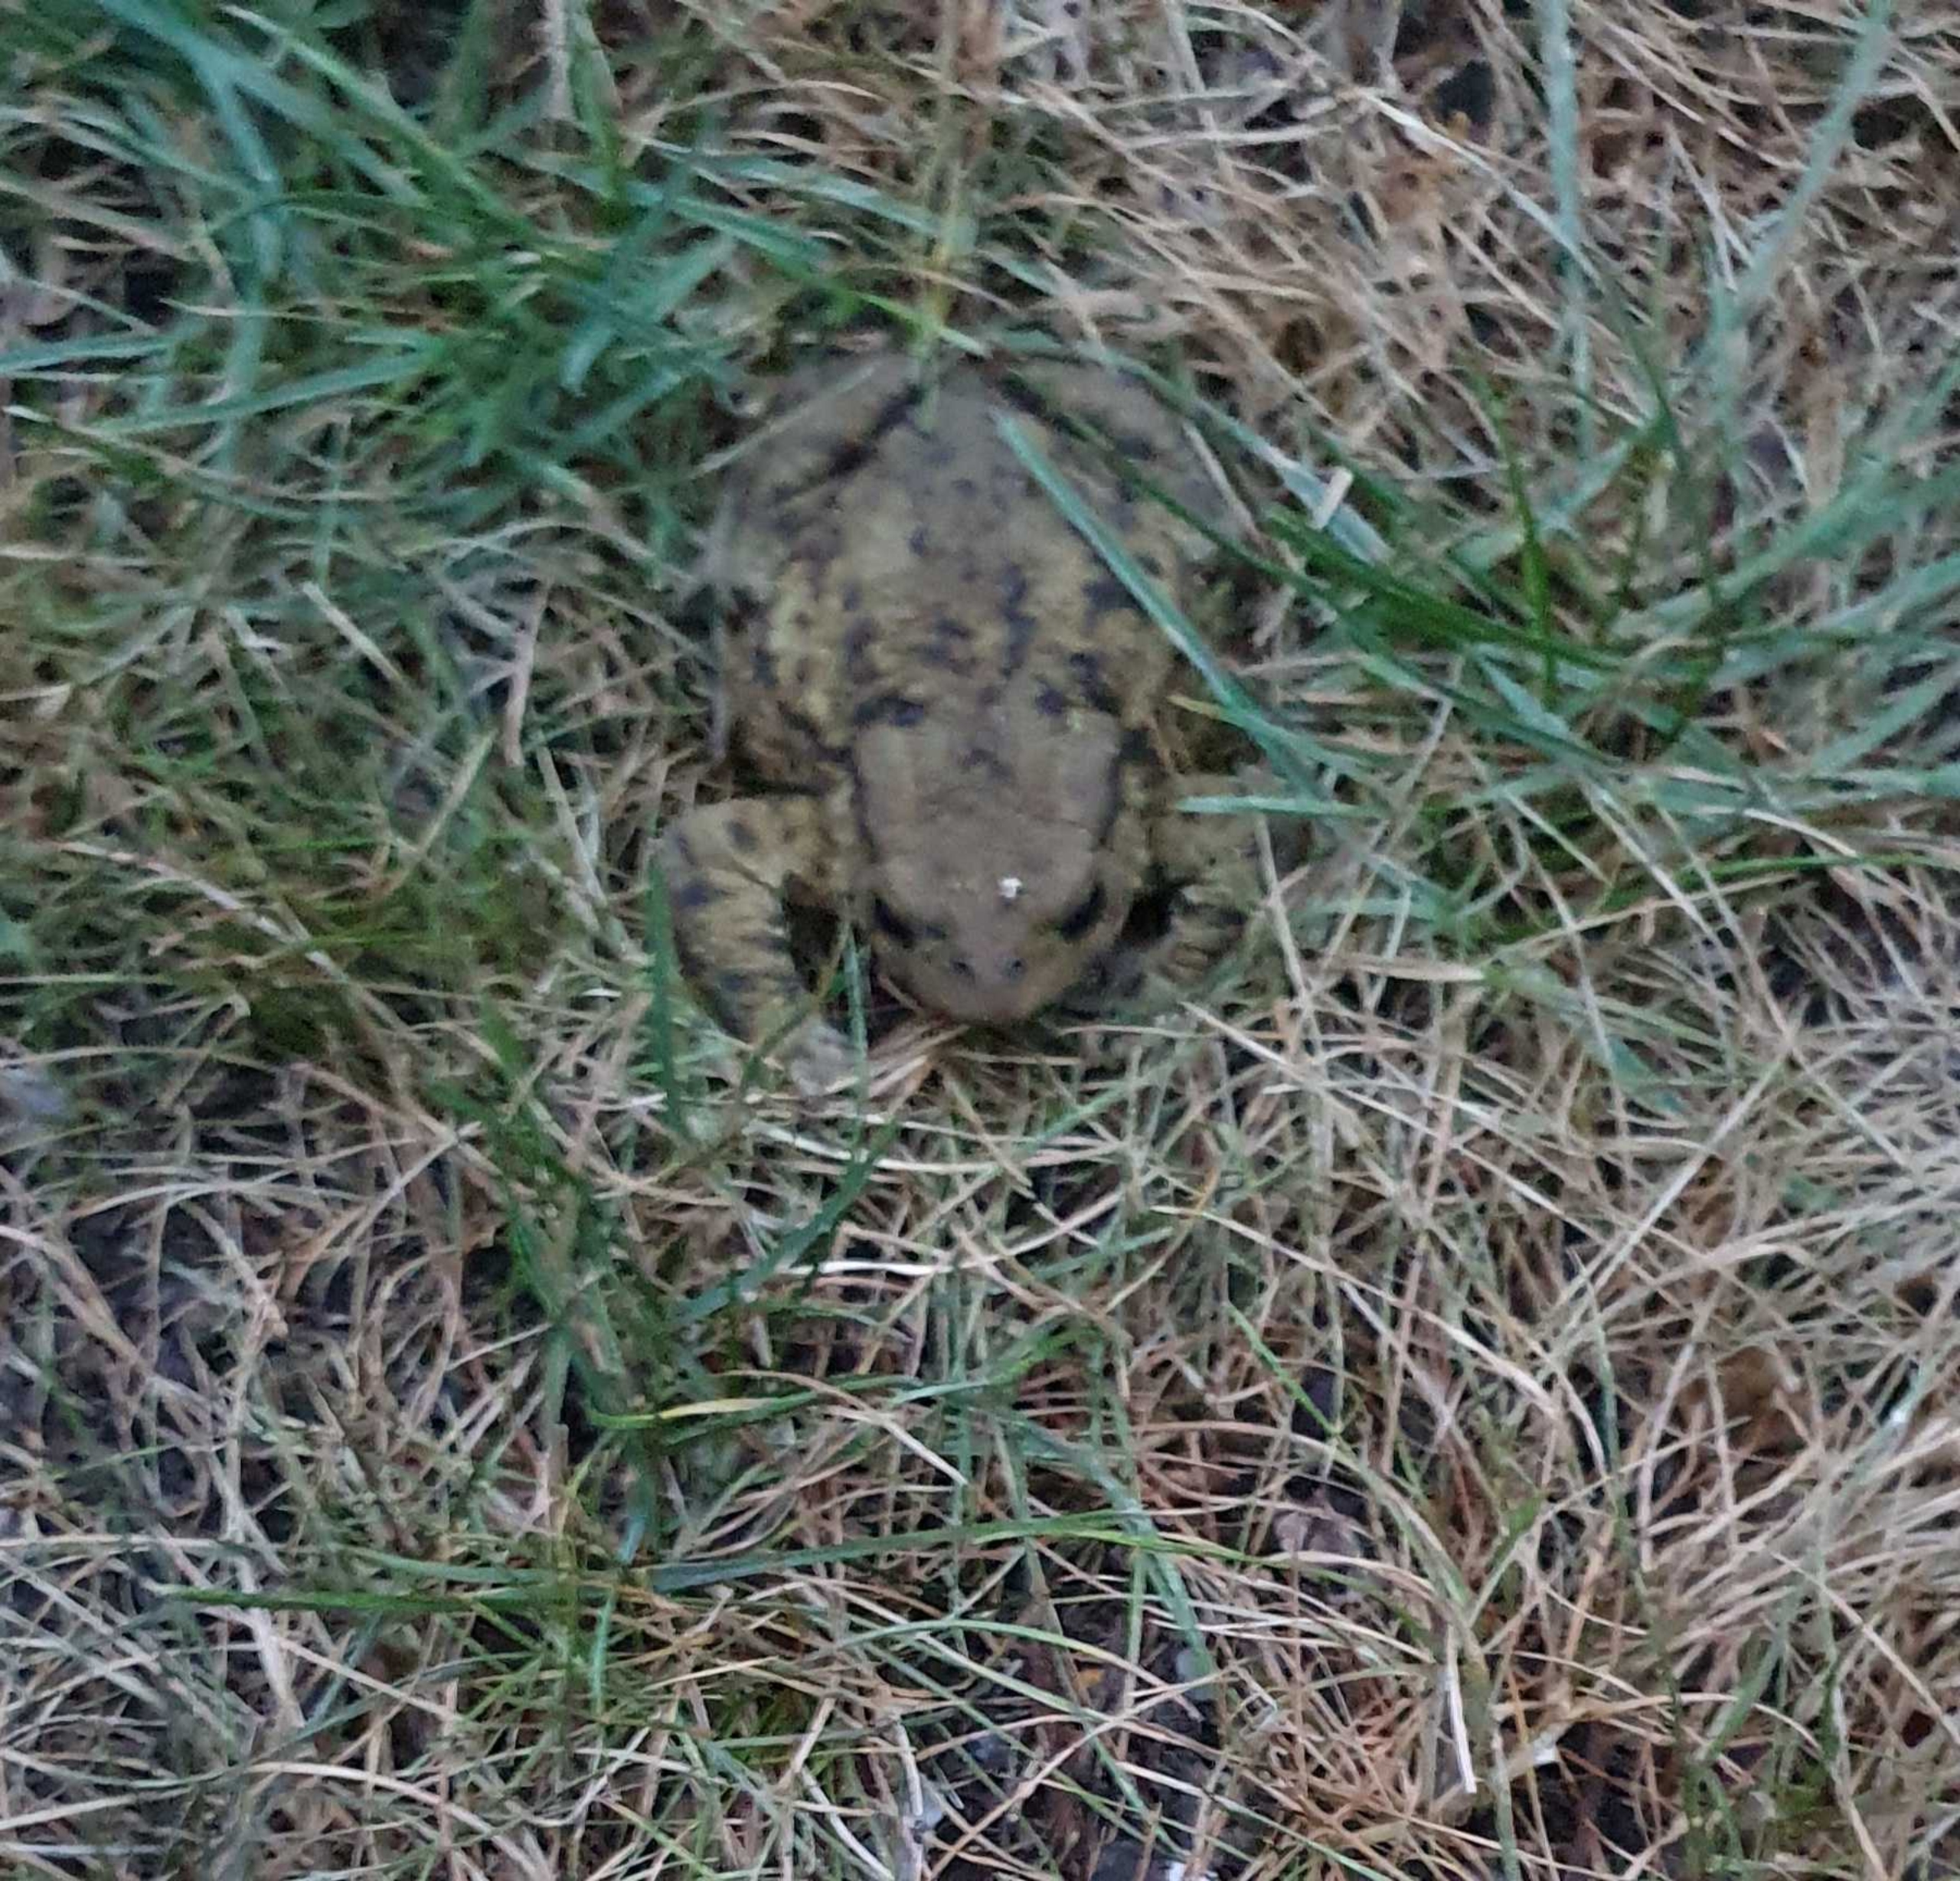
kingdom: Animalia
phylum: Chordata
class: Amphibia
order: Anura
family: Bufonidae
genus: Bufo
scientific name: Bufo bufo
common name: Skrubtudse
